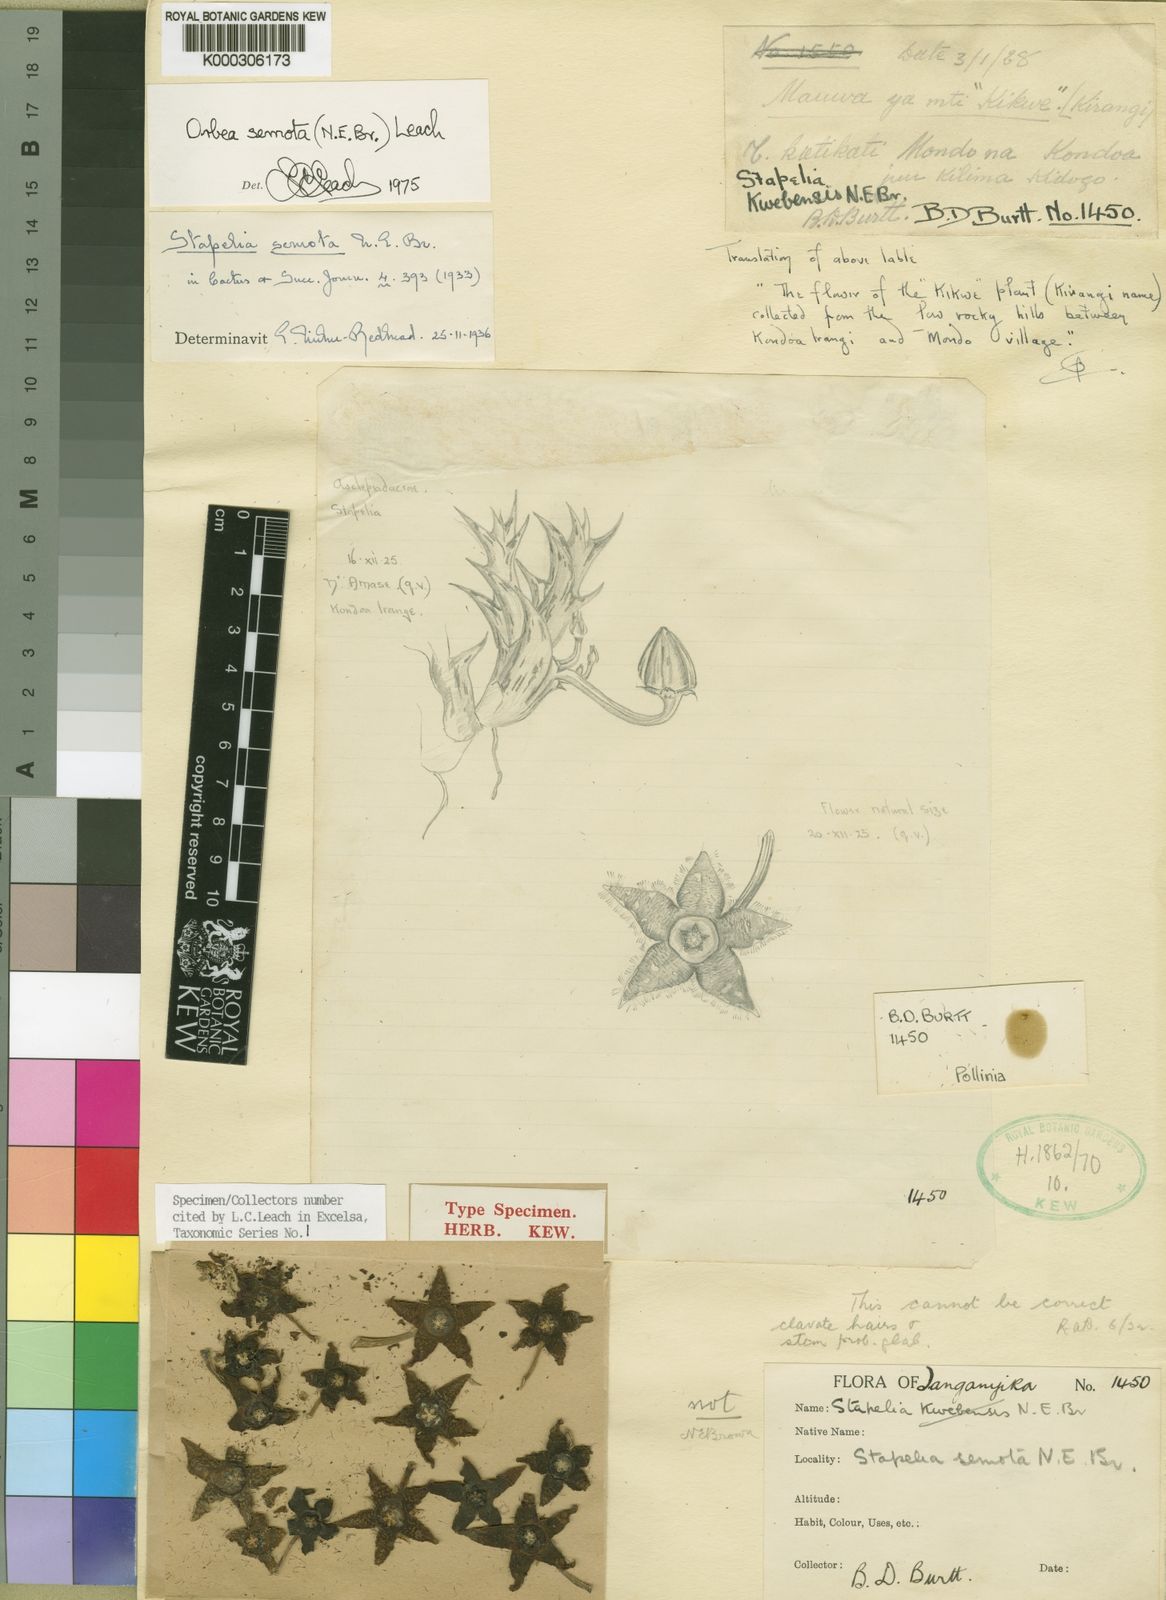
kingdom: Plantae
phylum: Tracheophyta
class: Magnoliopsida
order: Gentianales
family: Apocynaceae
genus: Ceropegia
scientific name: Ceropegia semota
